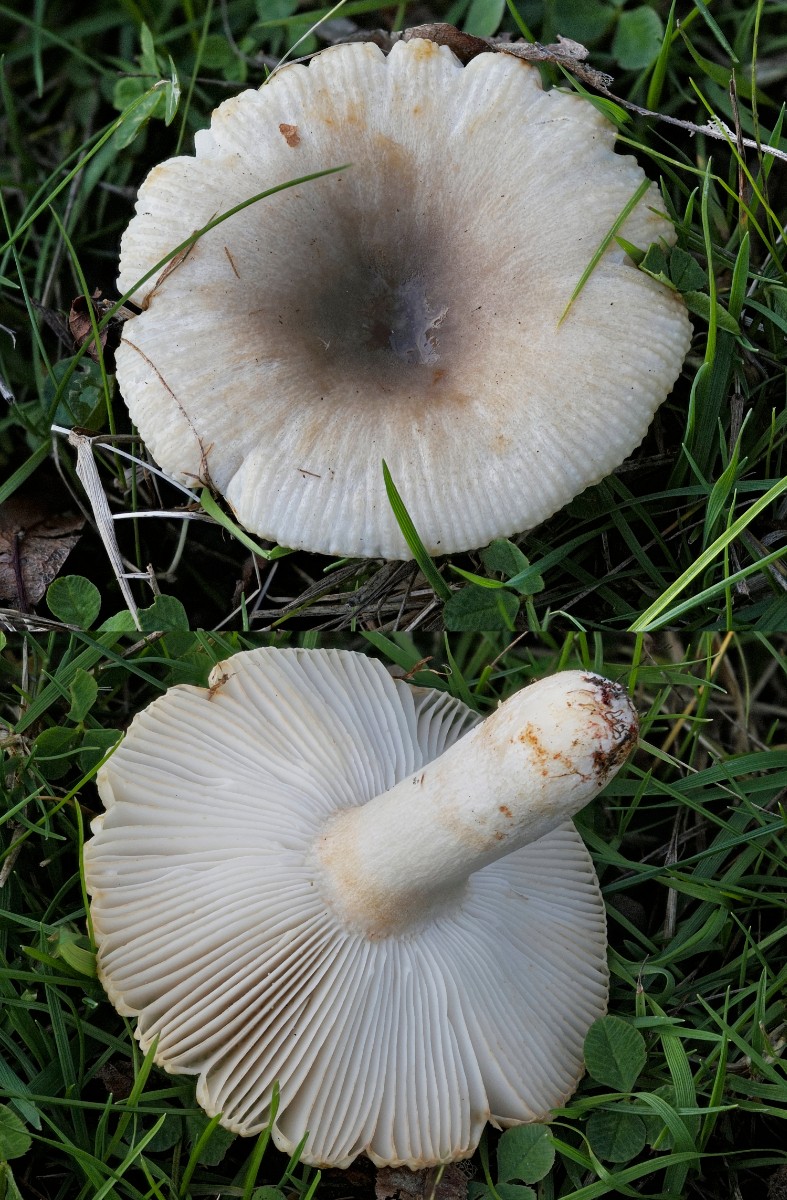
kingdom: Fungi
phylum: Basidiomycota
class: Agaricomycetes
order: Russulales
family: Russulaceae
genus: Russula
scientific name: Russula recondita
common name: mild kam-skørhat
